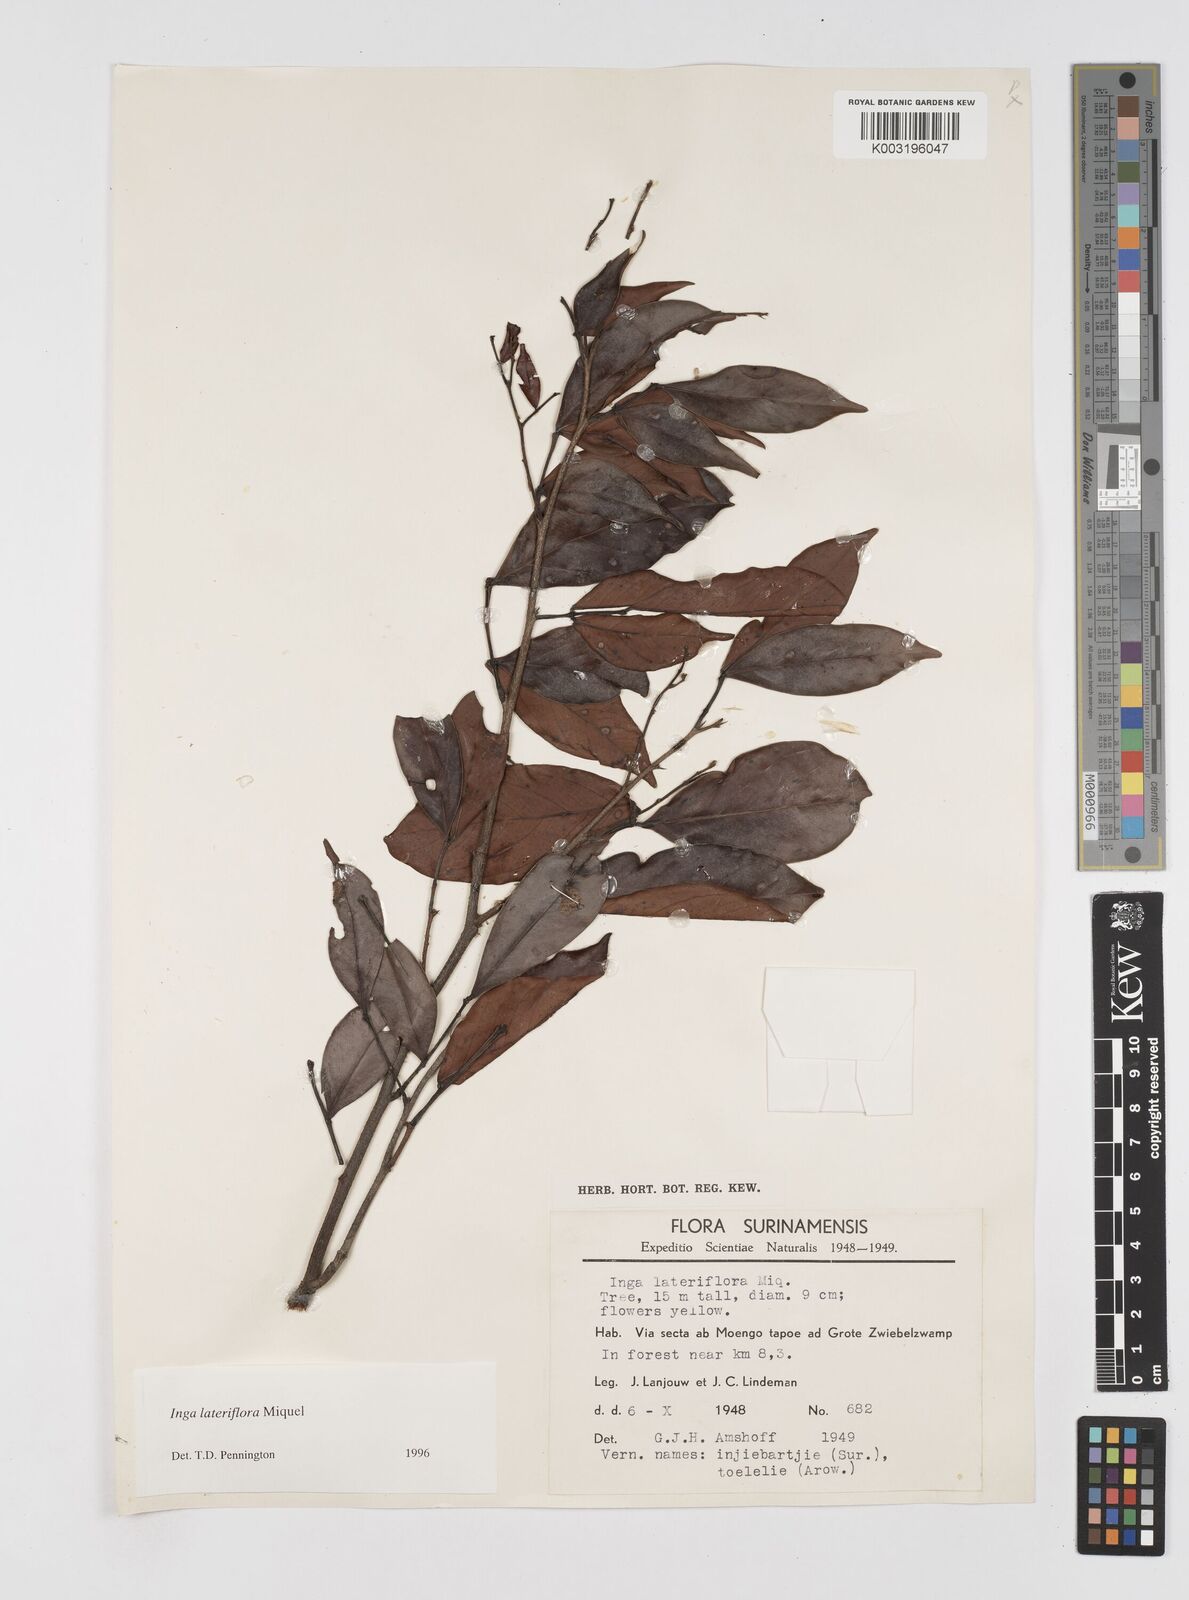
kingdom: Plantae
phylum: Tracheophyta
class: Magnoliopsida
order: Fabales
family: Fabaceae
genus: Inga
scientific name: Inga lateriflora
